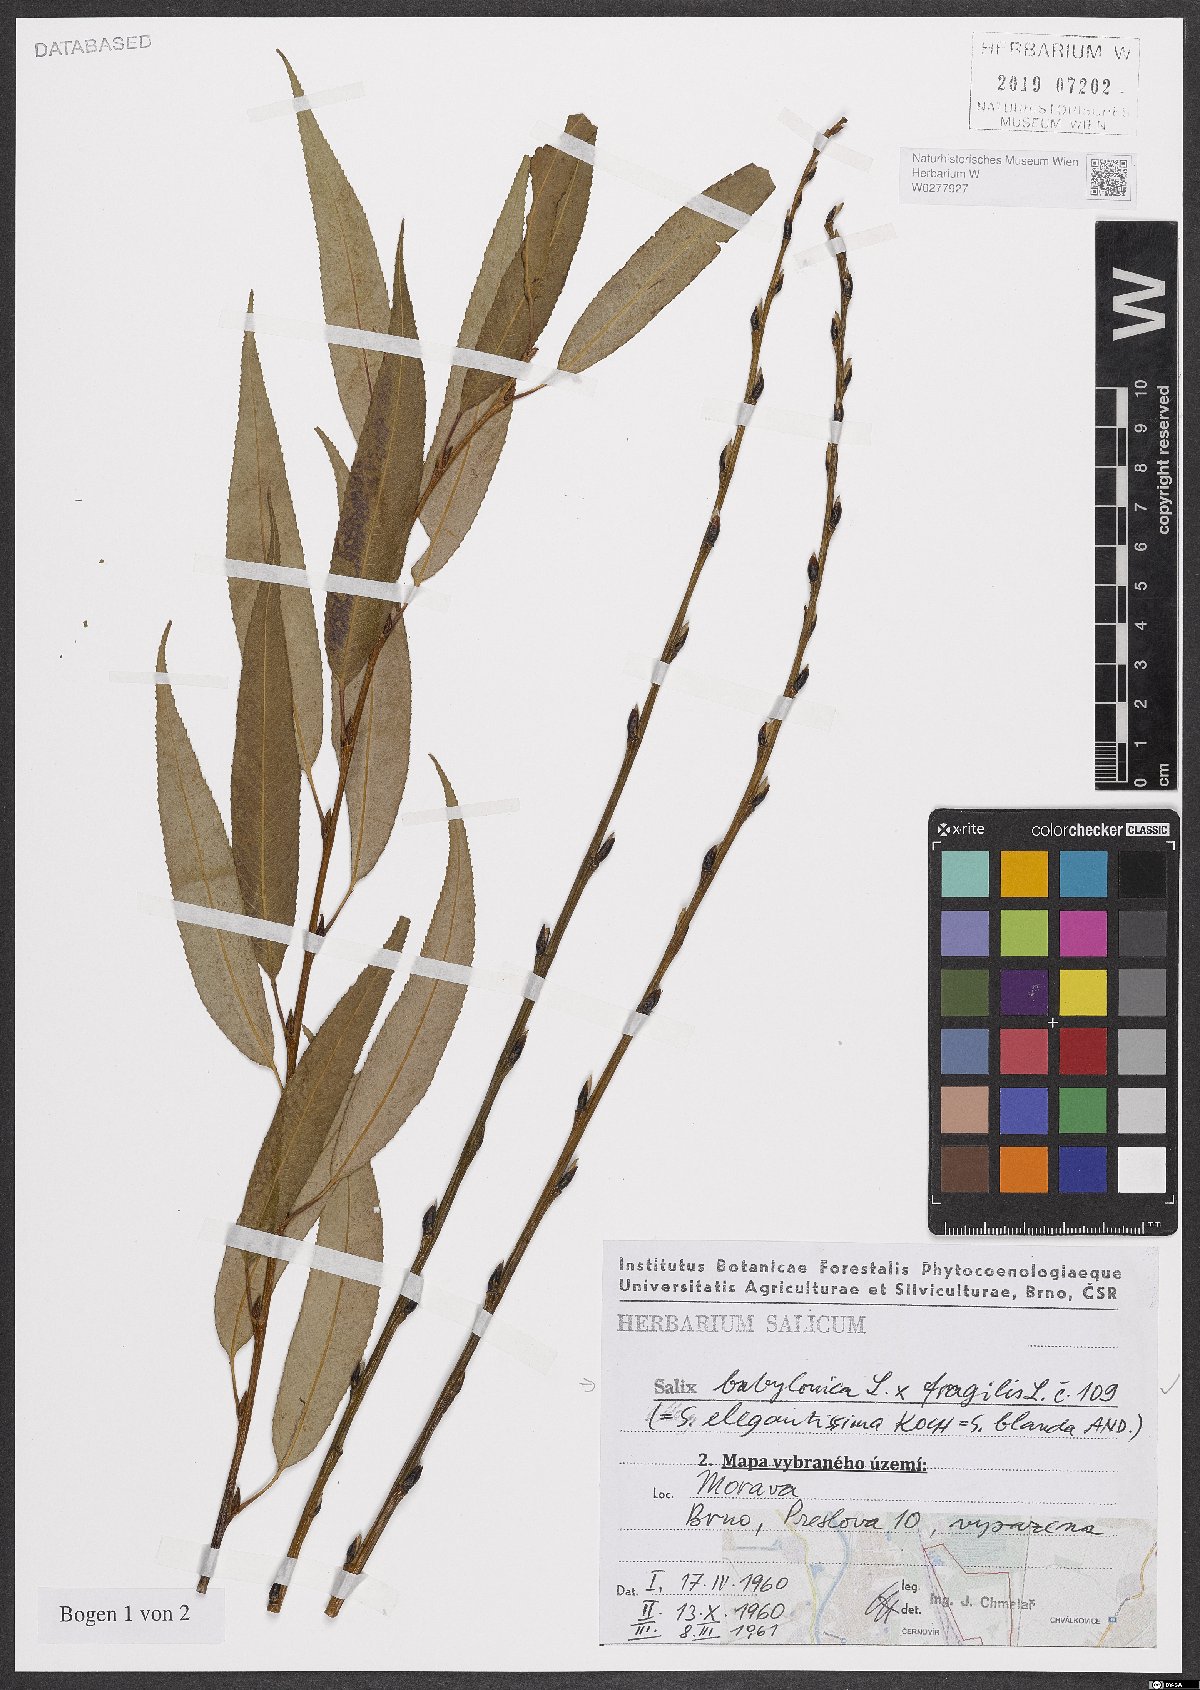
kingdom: Plantae
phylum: Tracheophyta
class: Magnoliopsida
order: Malpighiales
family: Salicaceae
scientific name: Salicaceae
